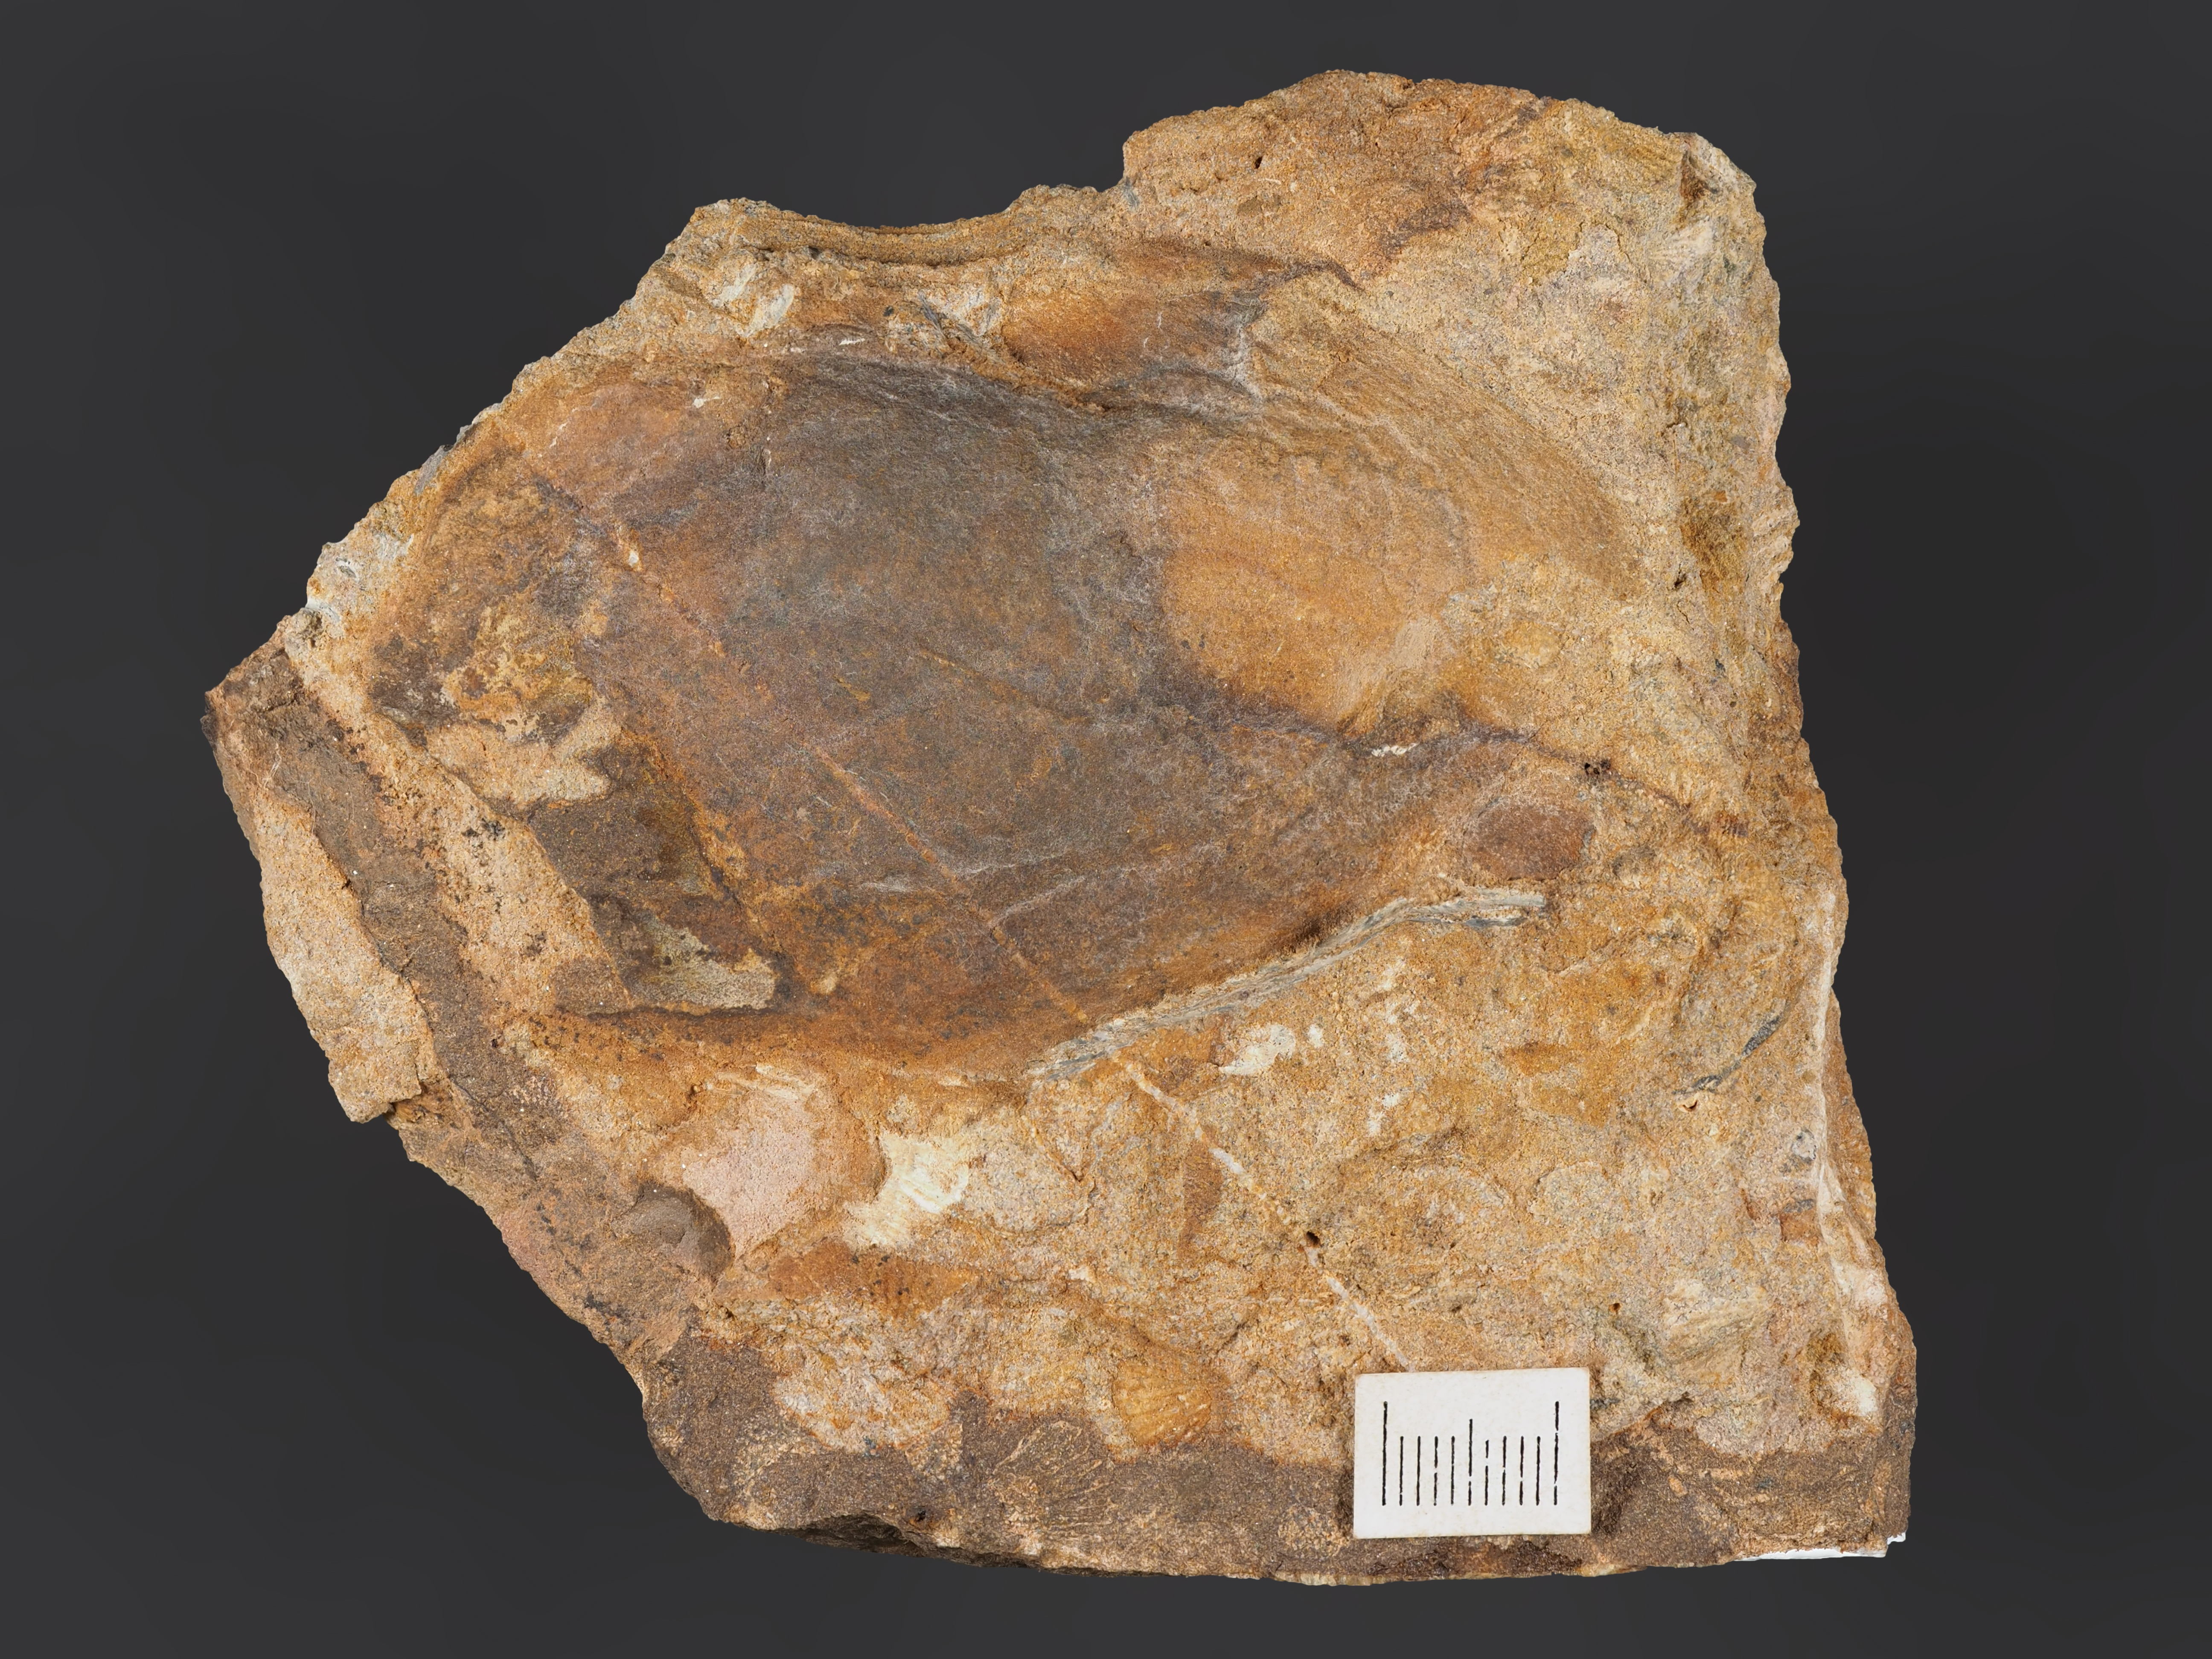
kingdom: Animalia
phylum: Mollusca
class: Bivalvia
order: Nuculanida
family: Malletiidae
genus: Palaeoneilo
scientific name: Palaeoneilo
